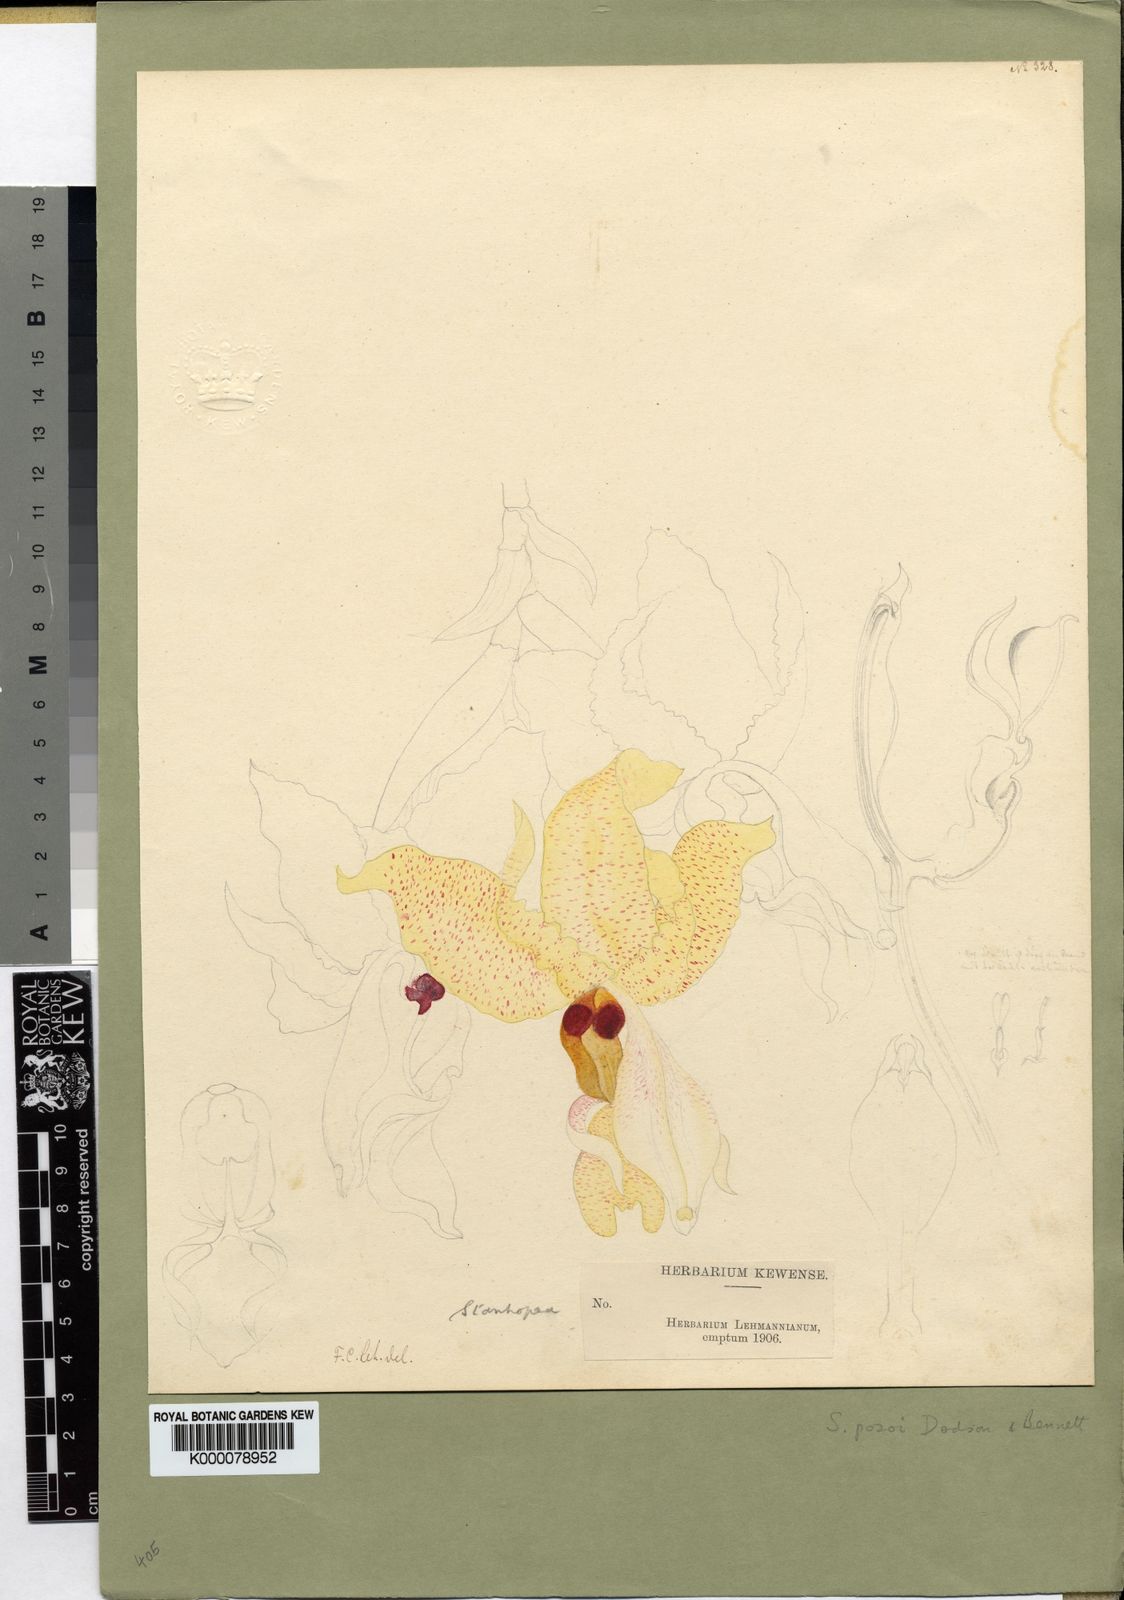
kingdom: Plantae
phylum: Tracheophyta
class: Liliopsida
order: Asparagales
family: Orchidaceae
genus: Stanhopea
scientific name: Stanhopea pozoi
